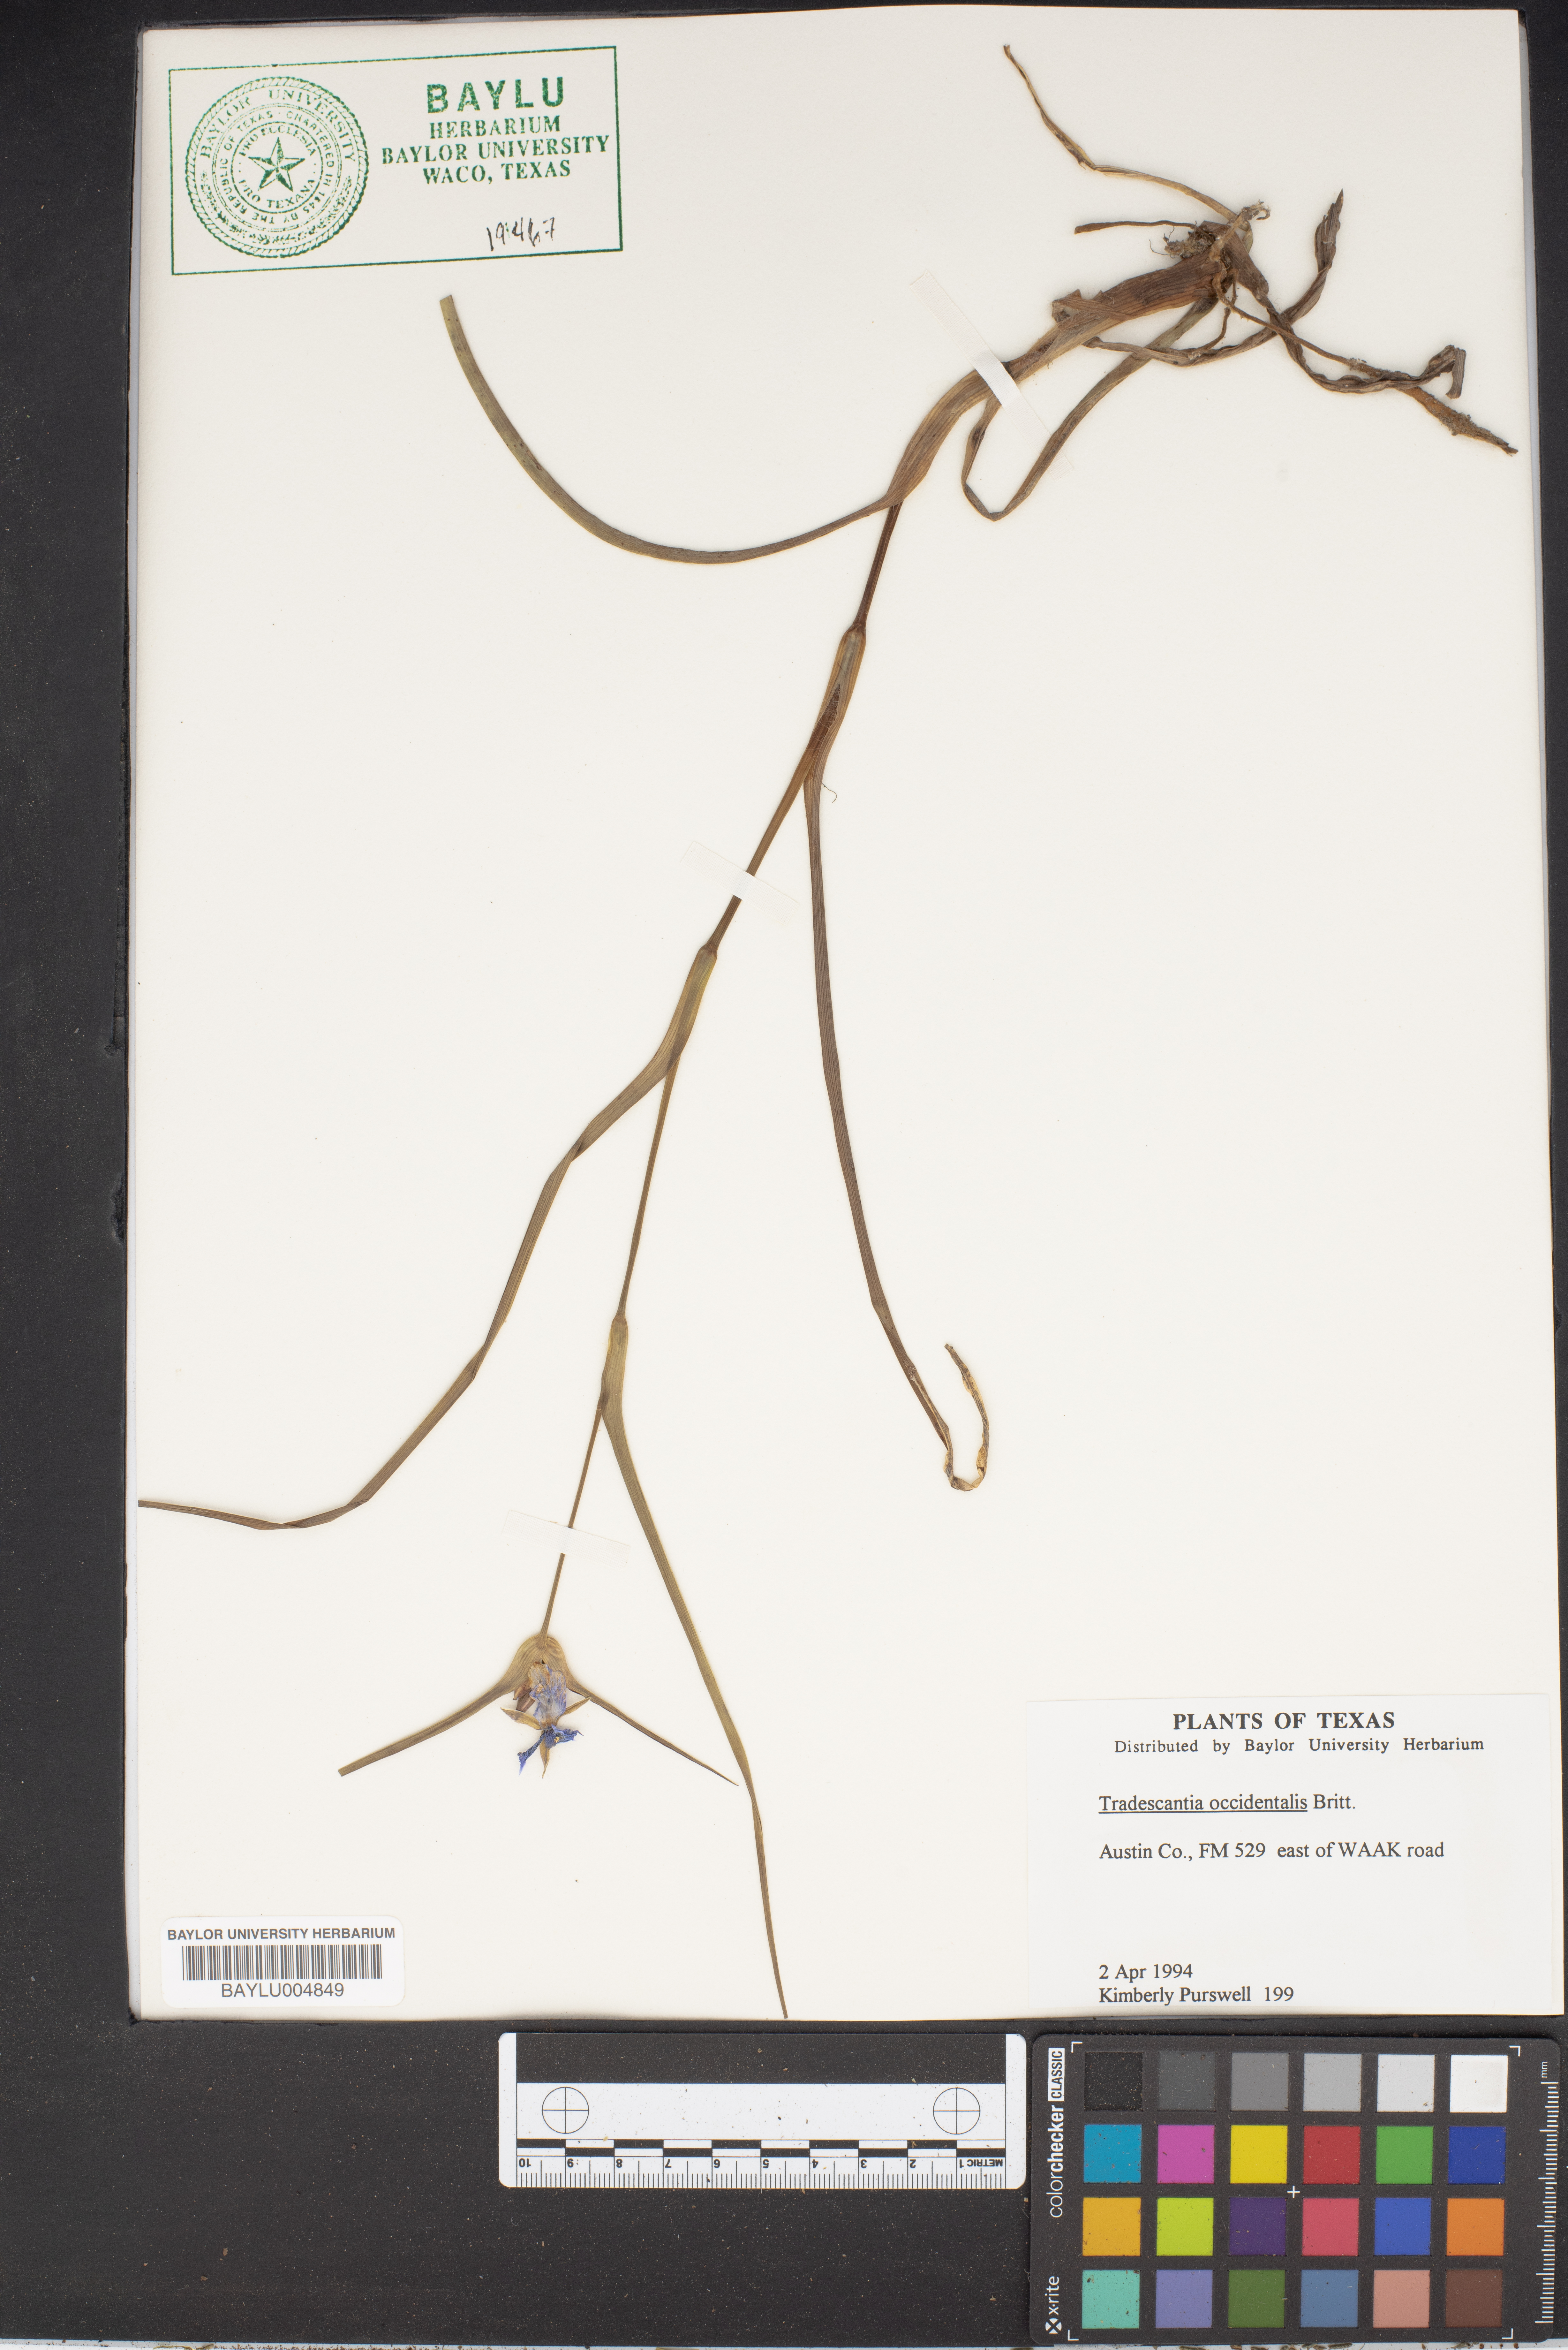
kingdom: Plantae
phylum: Tracheophyta
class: Liliopsida
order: Commelinales
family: Commelinaceae
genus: Tradescantia
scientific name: Tradescantia occidentalis
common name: Prairie spiderwort
